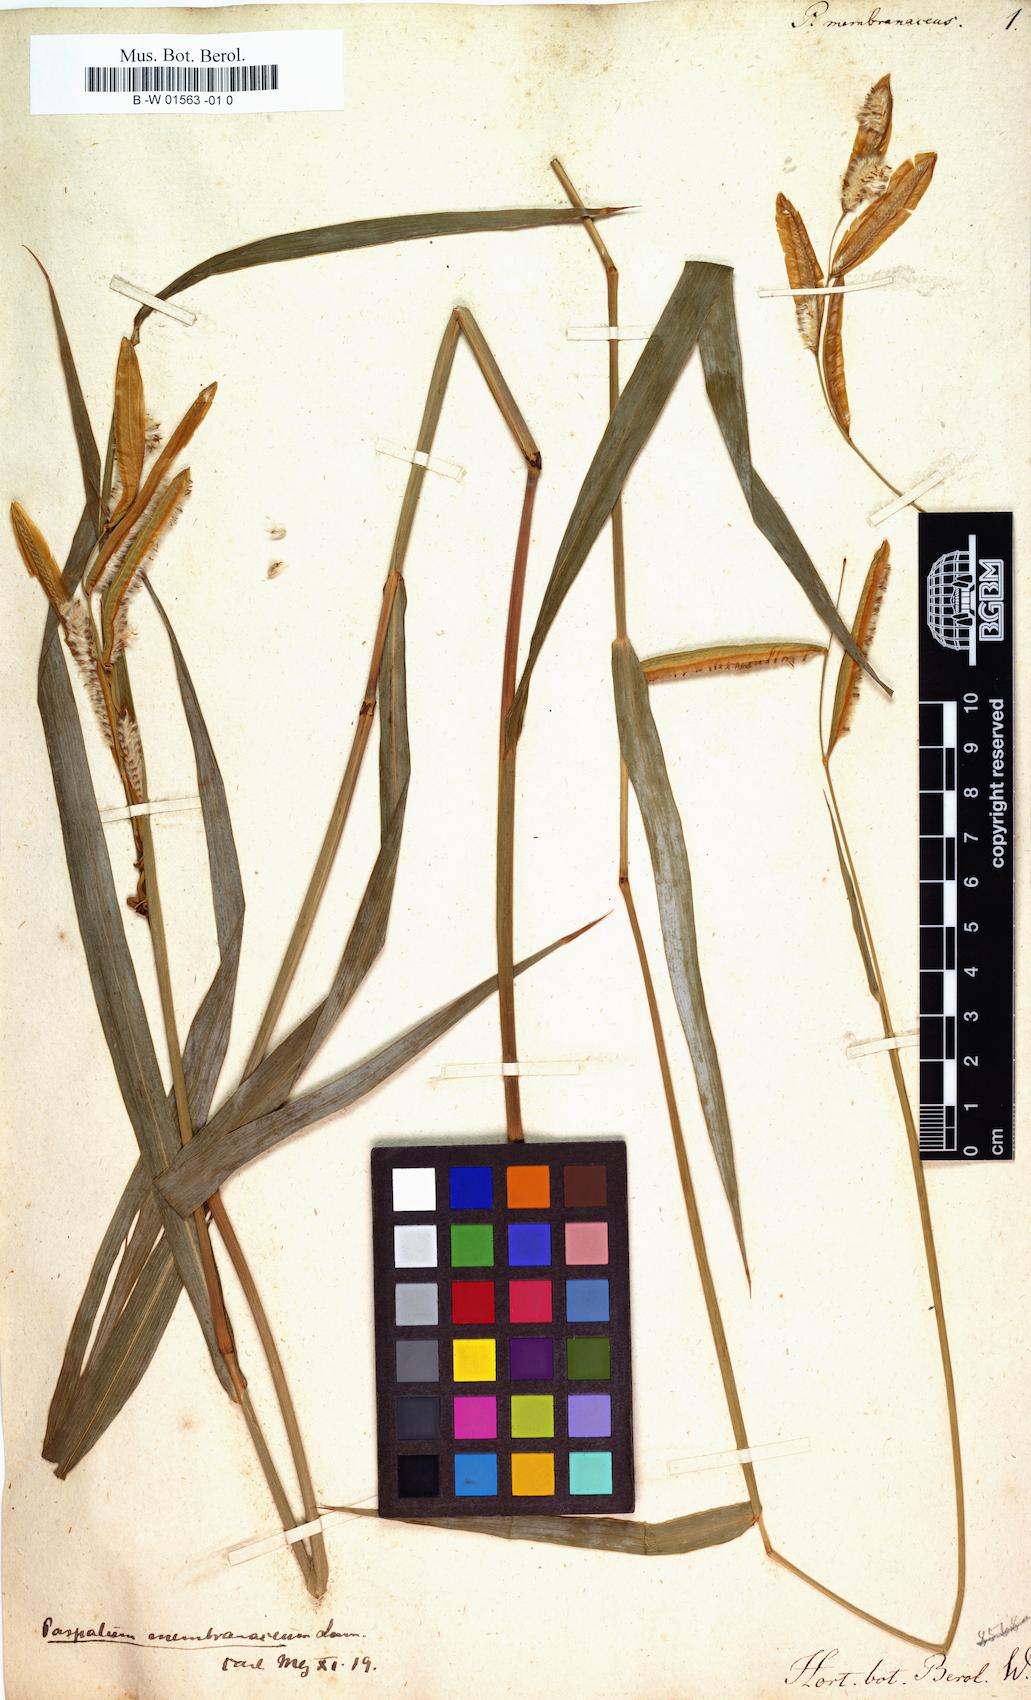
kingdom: Plantae
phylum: Tracheophyta
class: Liliopsida
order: Poales
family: Poaceae
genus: Paspalum
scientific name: Paspalum
